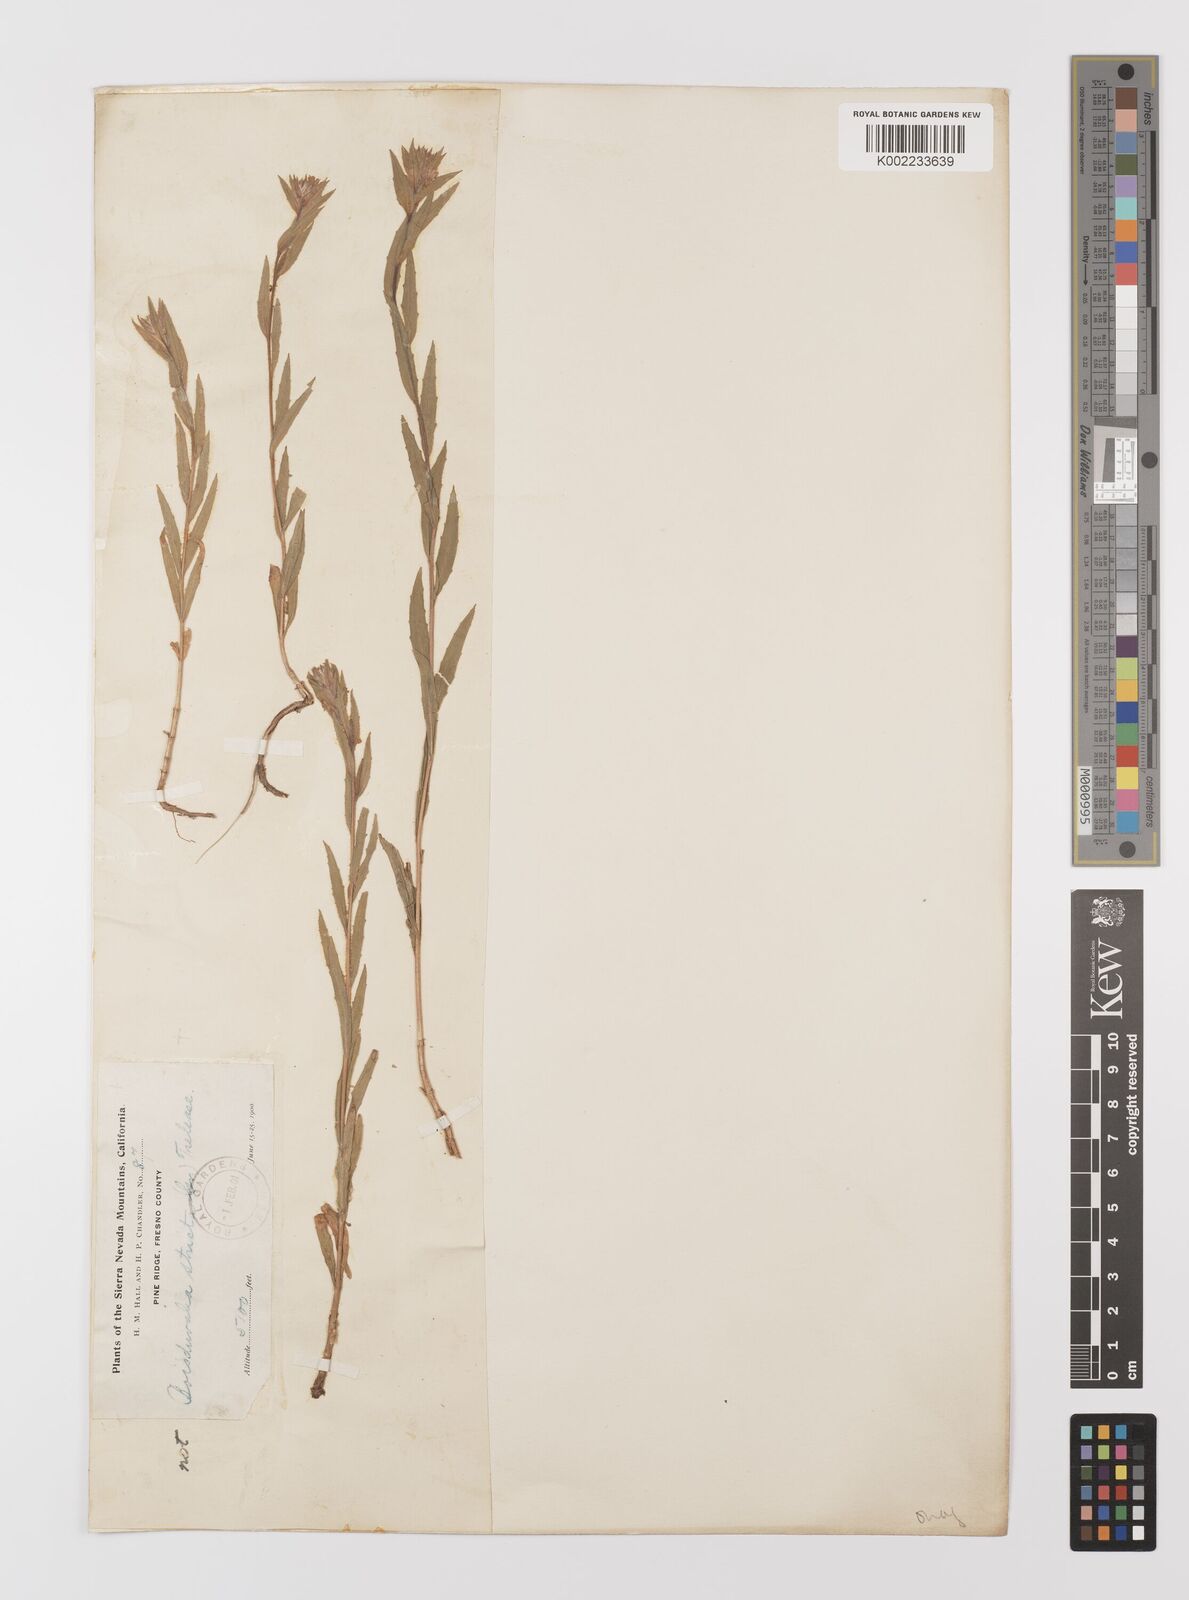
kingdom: Plantae
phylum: Tracheophyta
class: Magnoliopsida
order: Myrtales
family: Onagraceae
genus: Epilobium
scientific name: Epilobium densiflorum
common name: Dense spike-primrose
